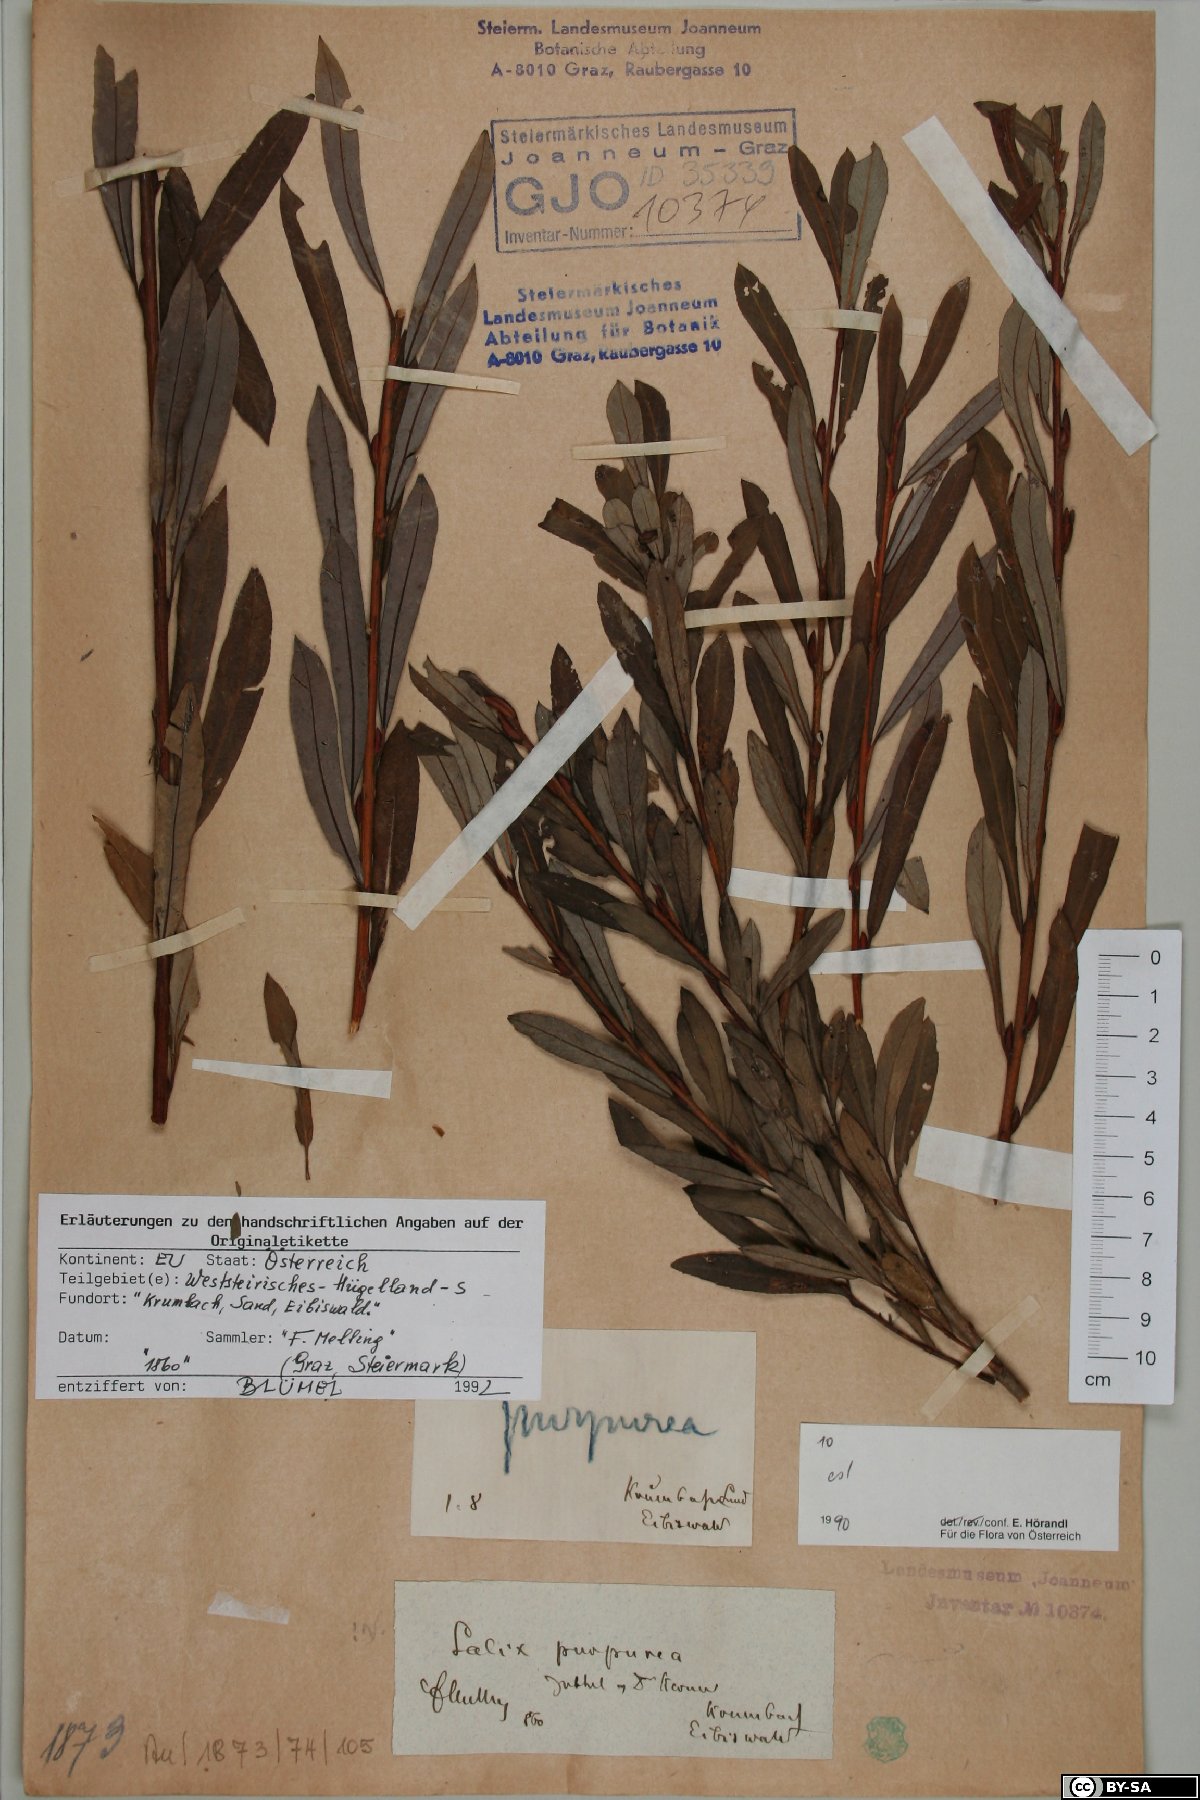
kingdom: Plantae
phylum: Tracheophyta
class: Magnoliopsida
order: Malpighiales
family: Salicaceae
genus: Salix
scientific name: Salix purpurea
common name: Purple willow
